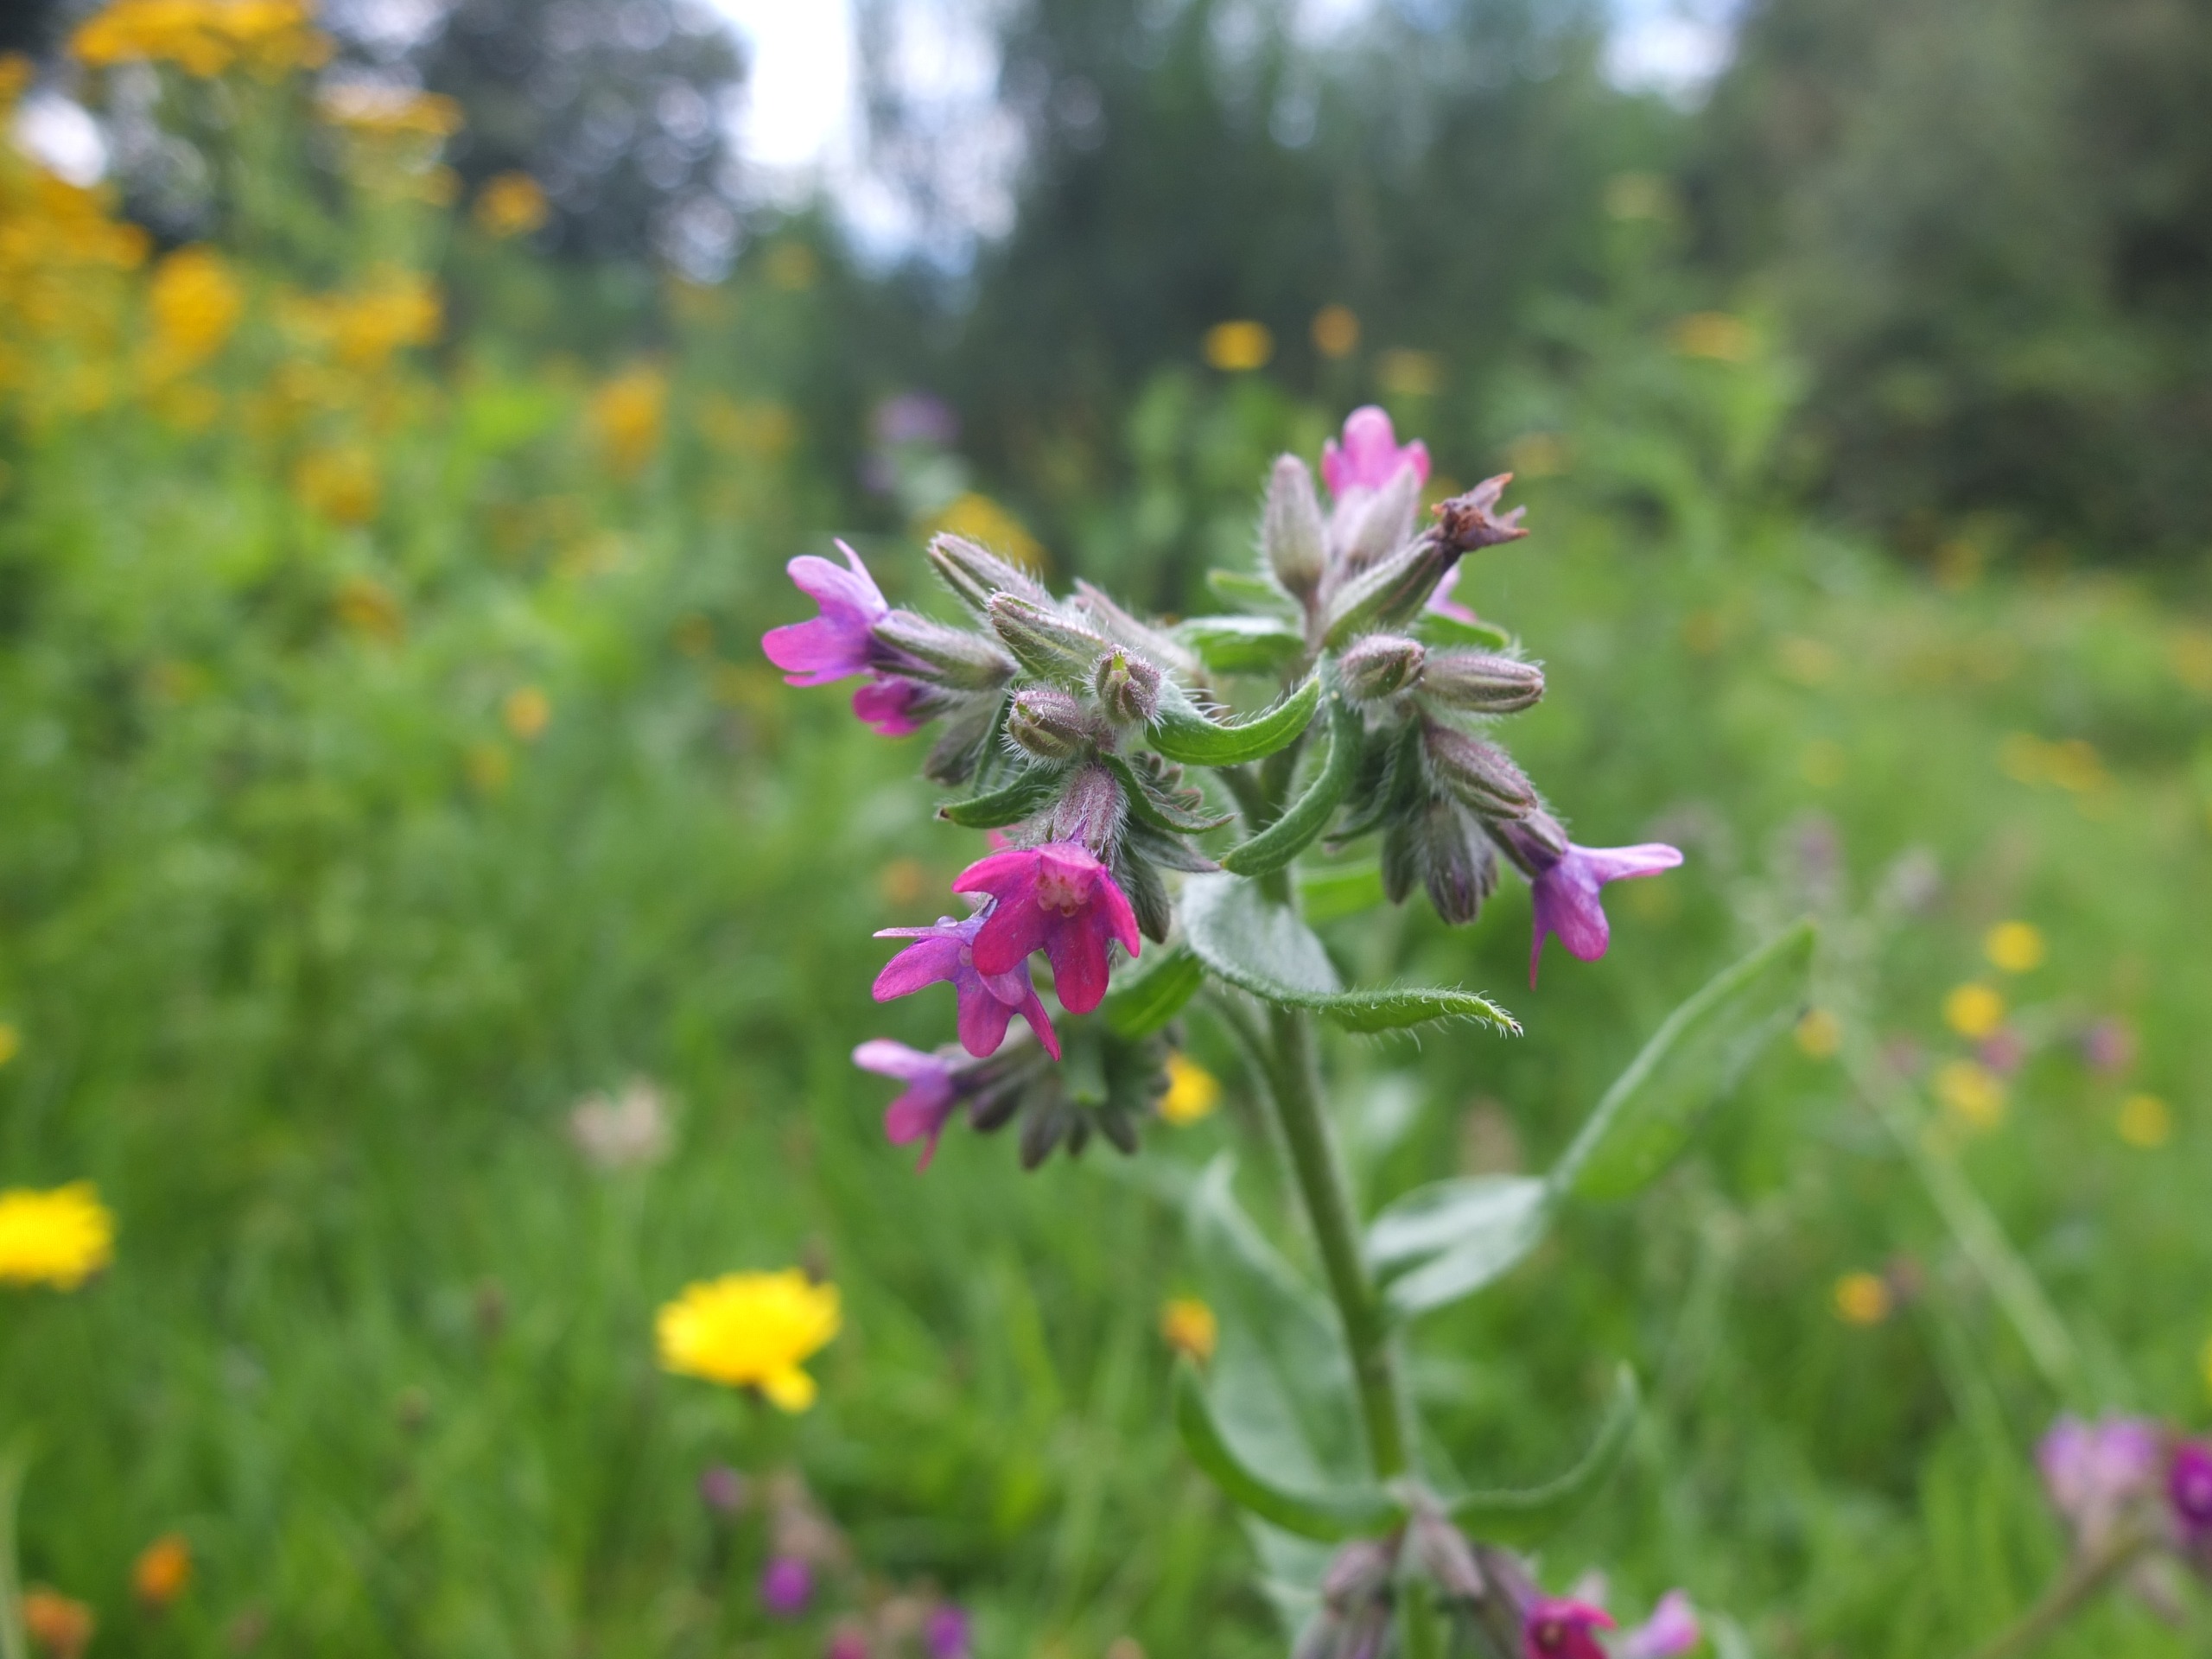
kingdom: Plantae
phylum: Tracheophyta
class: Magnoliopsida
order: Boraginales
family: Boraginaceae
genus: Anchusa
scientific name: Anchusa officinalis
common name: Læge-oksetunge
